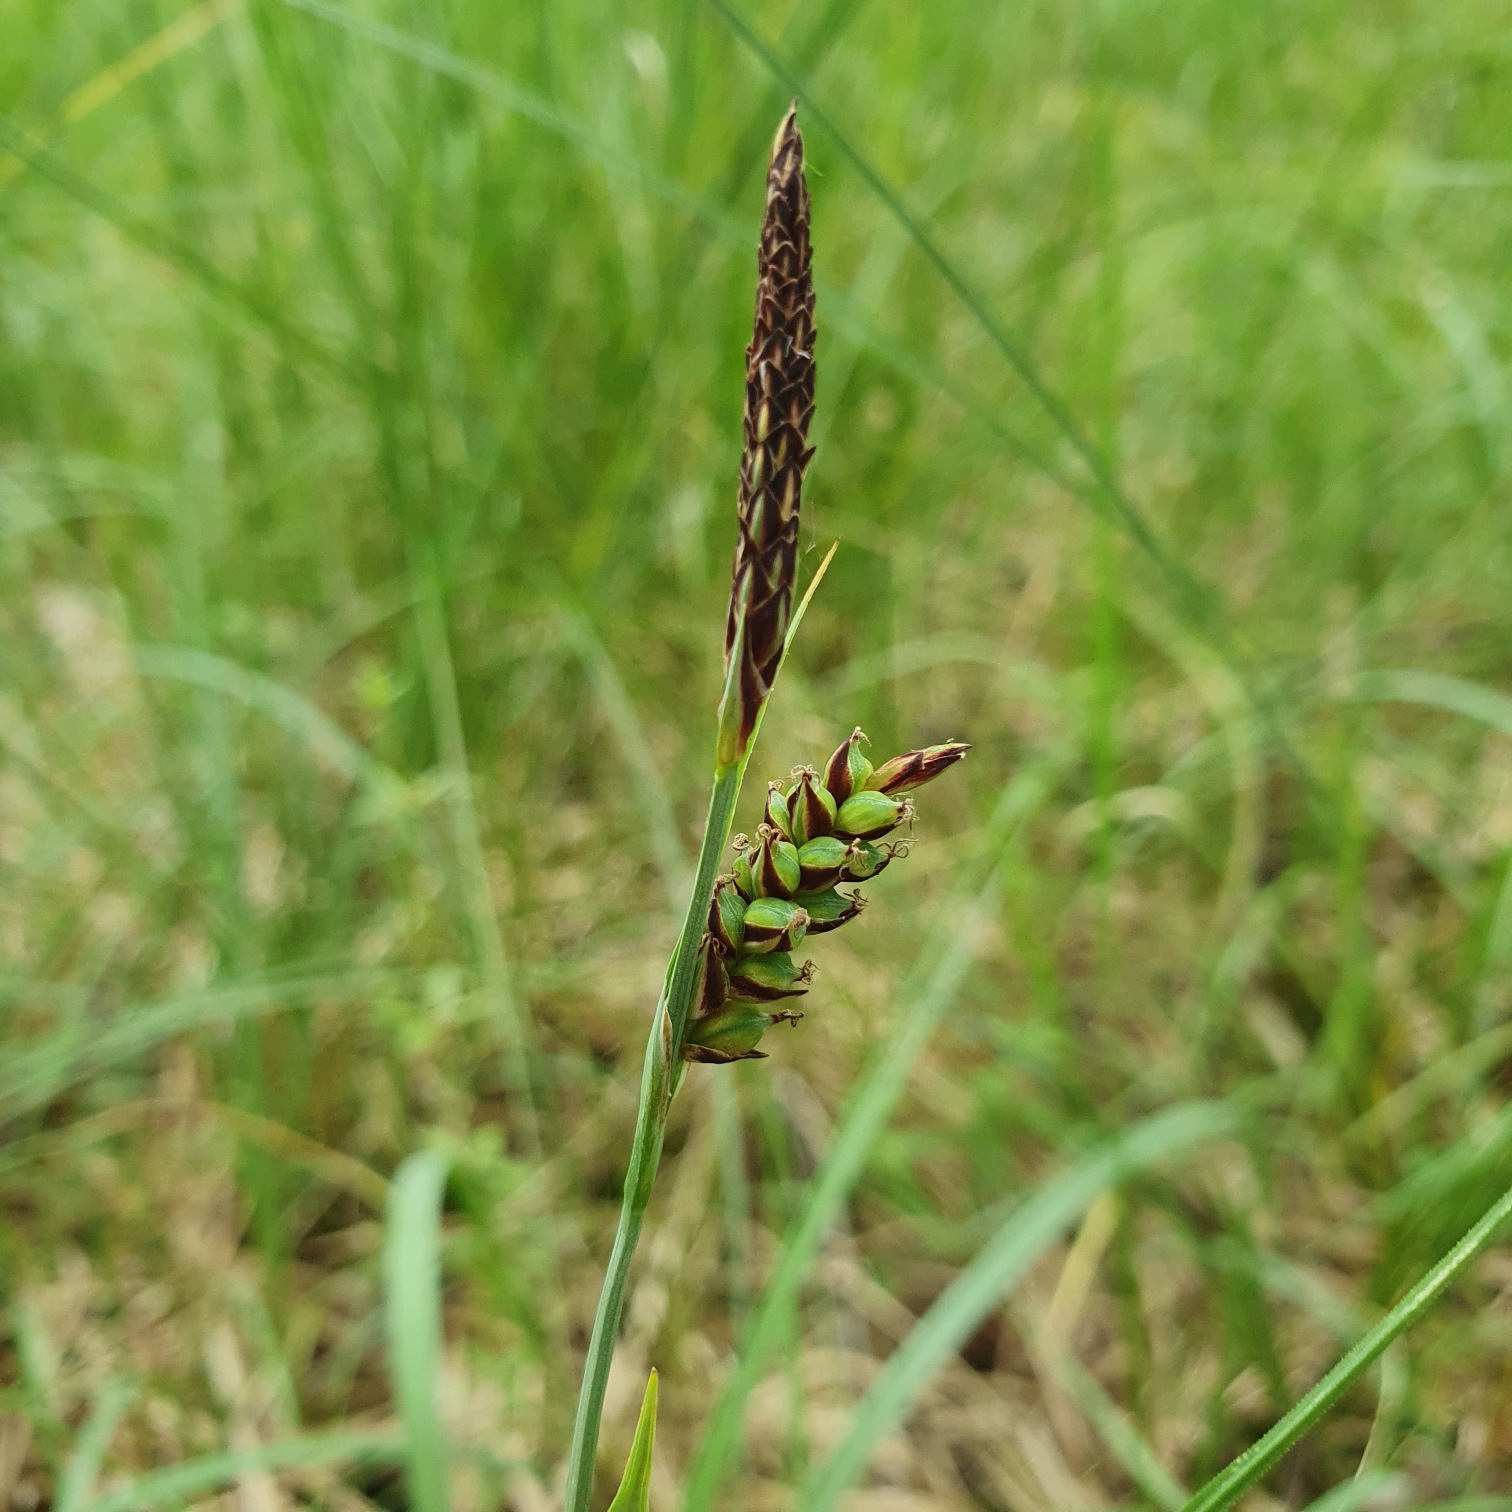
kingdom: Plantae
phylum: Tracheophyta
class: Liliopsida
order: Poales
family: Cyperaceae
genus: Carex
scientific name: Carex panicea
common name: Hirse-star
